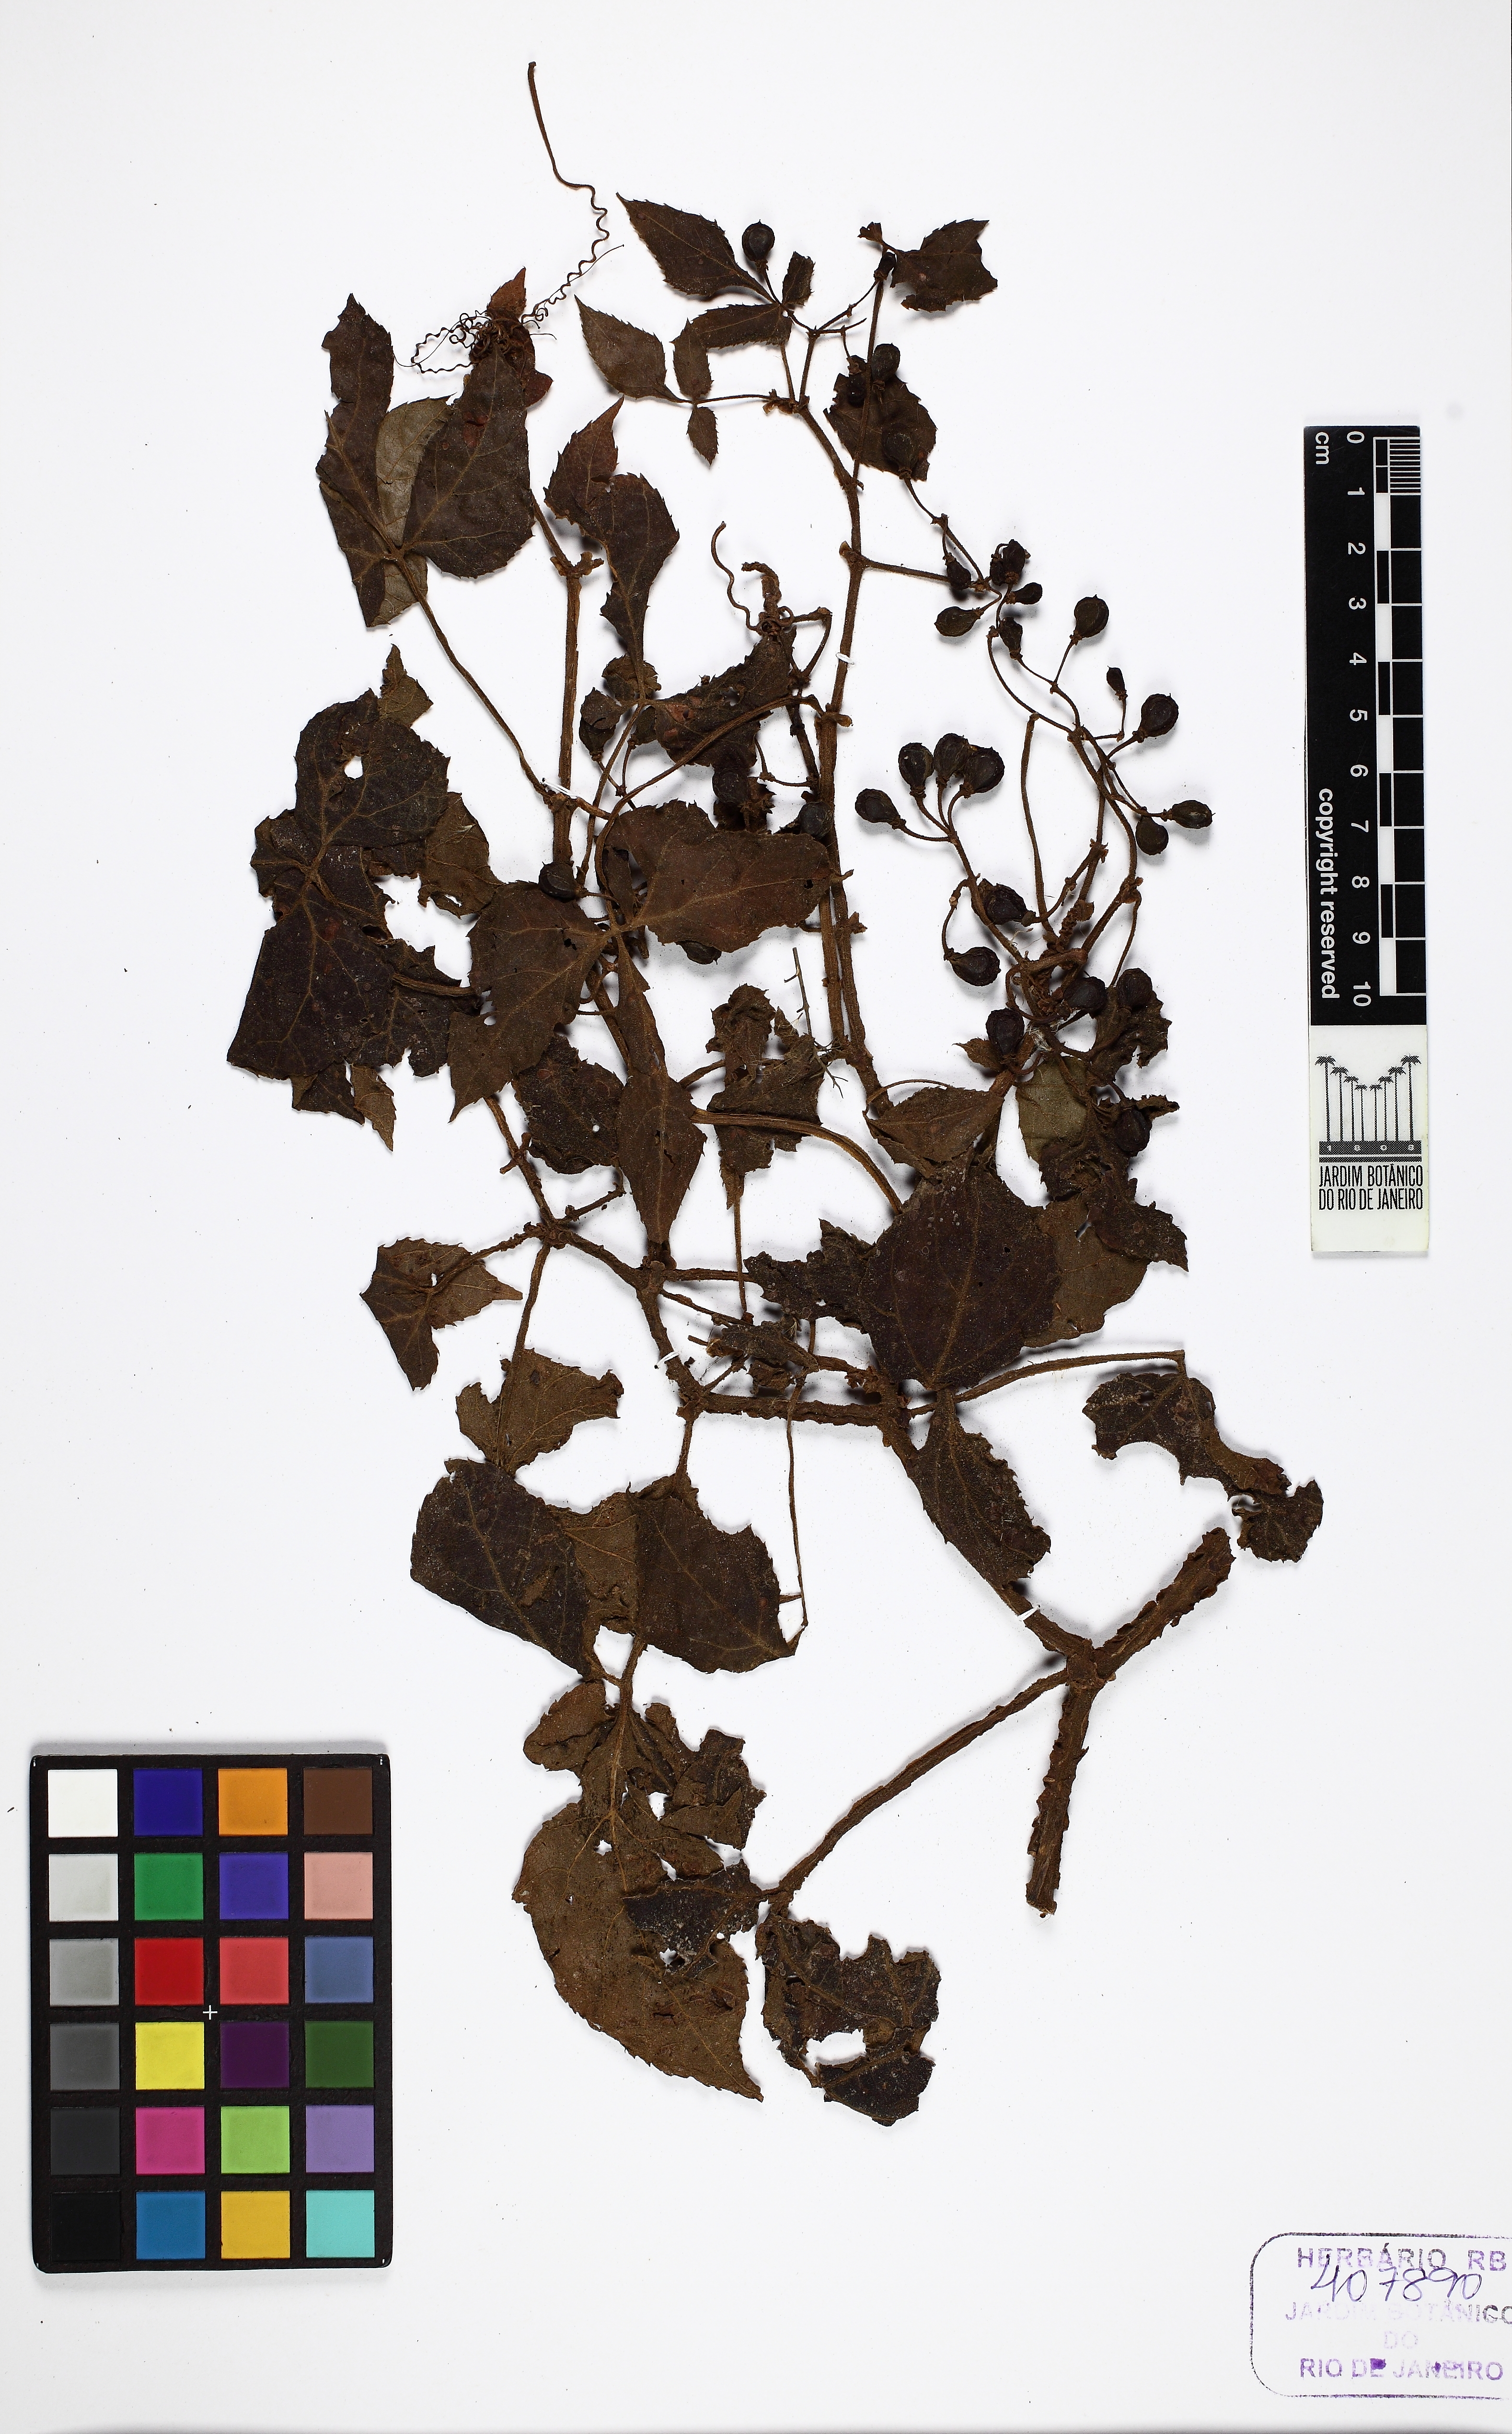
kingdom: Plantae
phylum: Tracheophyta
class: Magnoliopsida
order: Vitales
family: Vitaceae
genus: Cissus
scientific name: Cissus sulcicaulis
